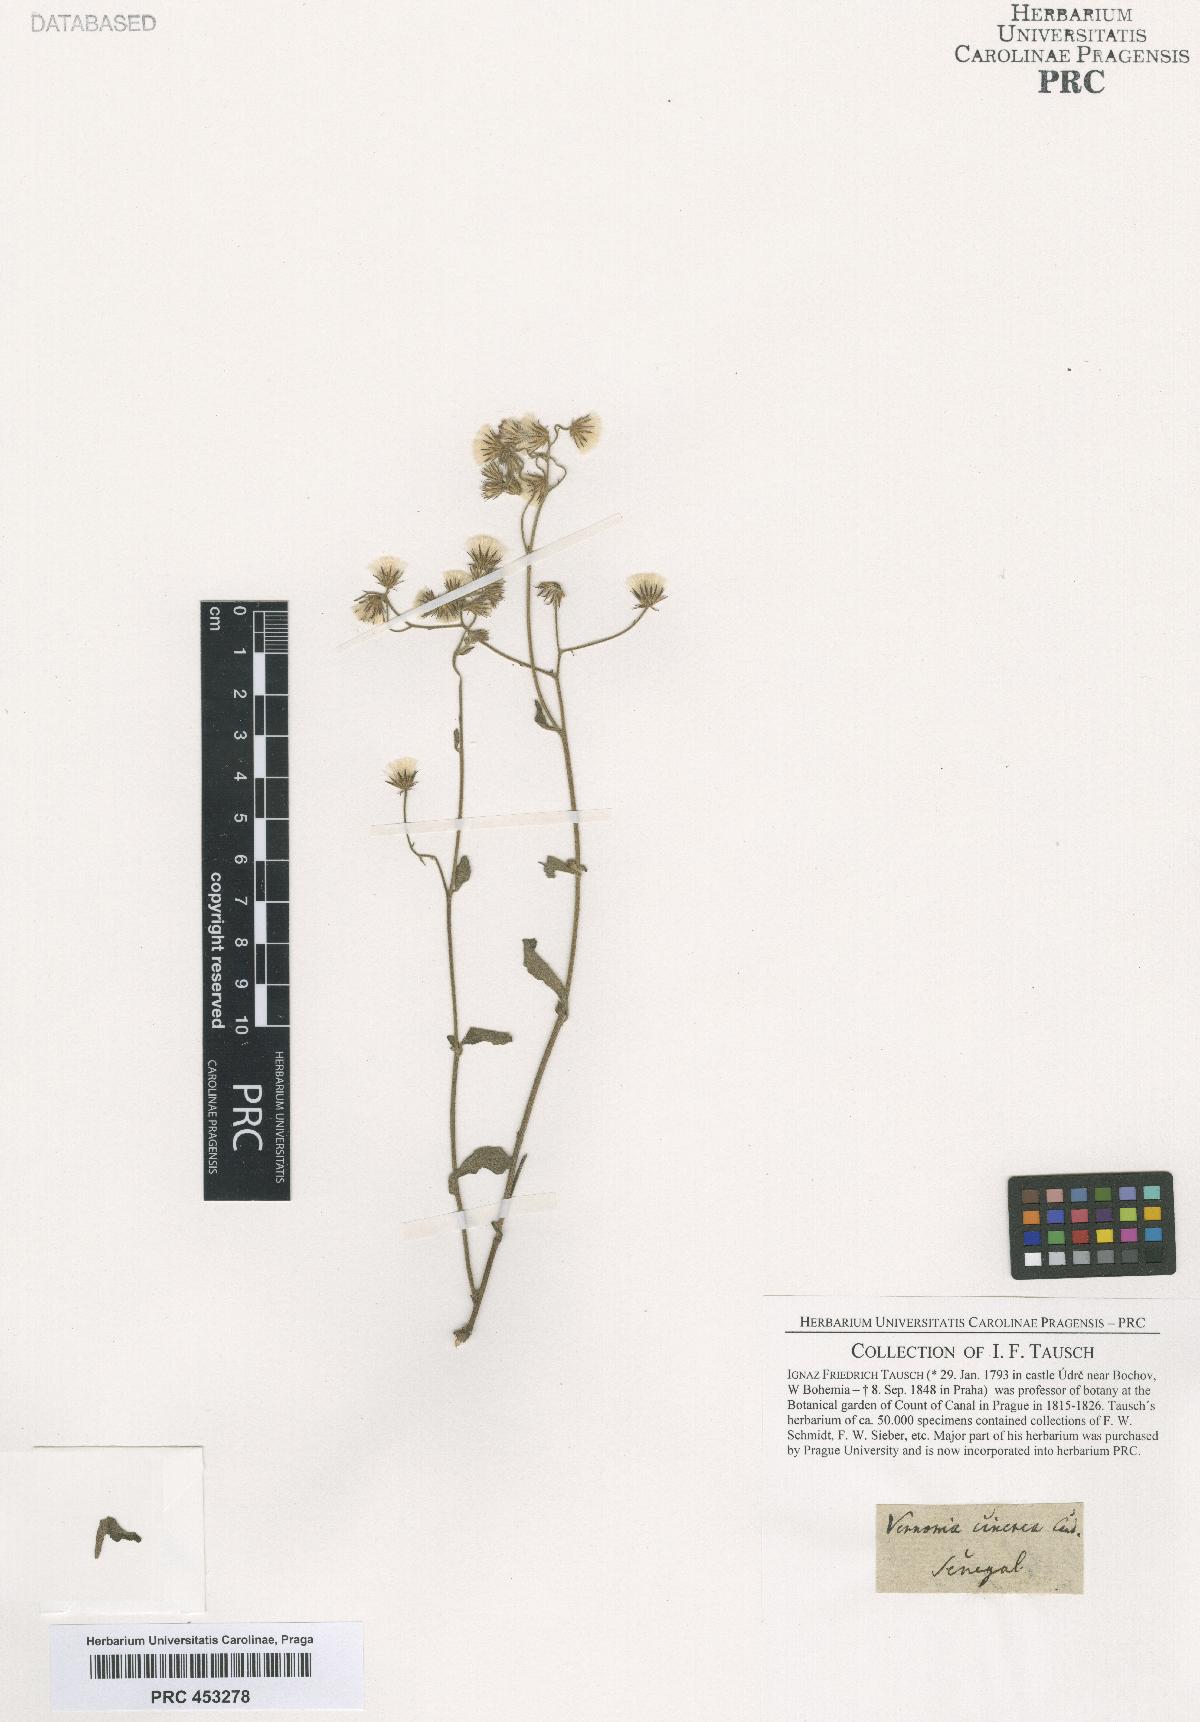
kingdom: Plantae
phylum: Tracheophyta
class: Magnoliopsida
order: Asterales
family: Asteraceae
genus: Cyanthillium
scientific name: Cyanthillium cinereum
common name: Little ironweed
